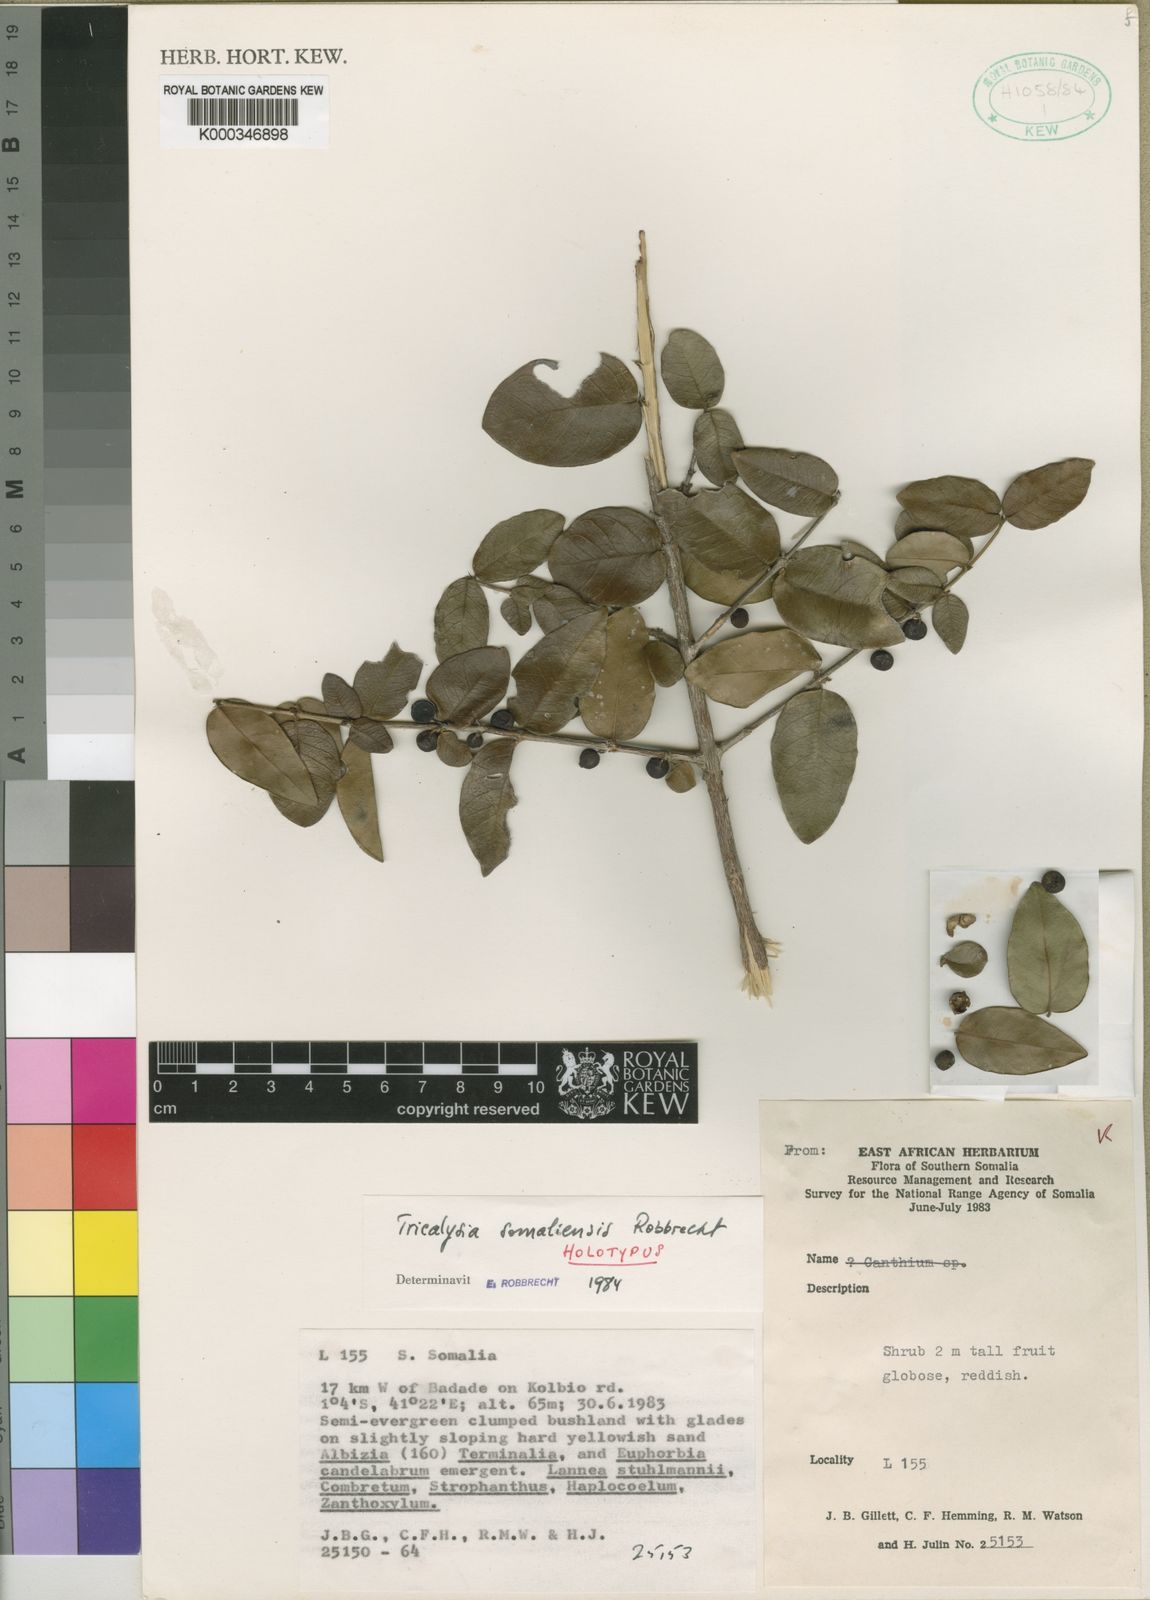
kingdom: Plantae
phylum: Tracheophyta
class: Magnoliopsida
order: Gentianales
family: Rubiaceae
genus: Empogona
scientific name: Empogona somaliensis
